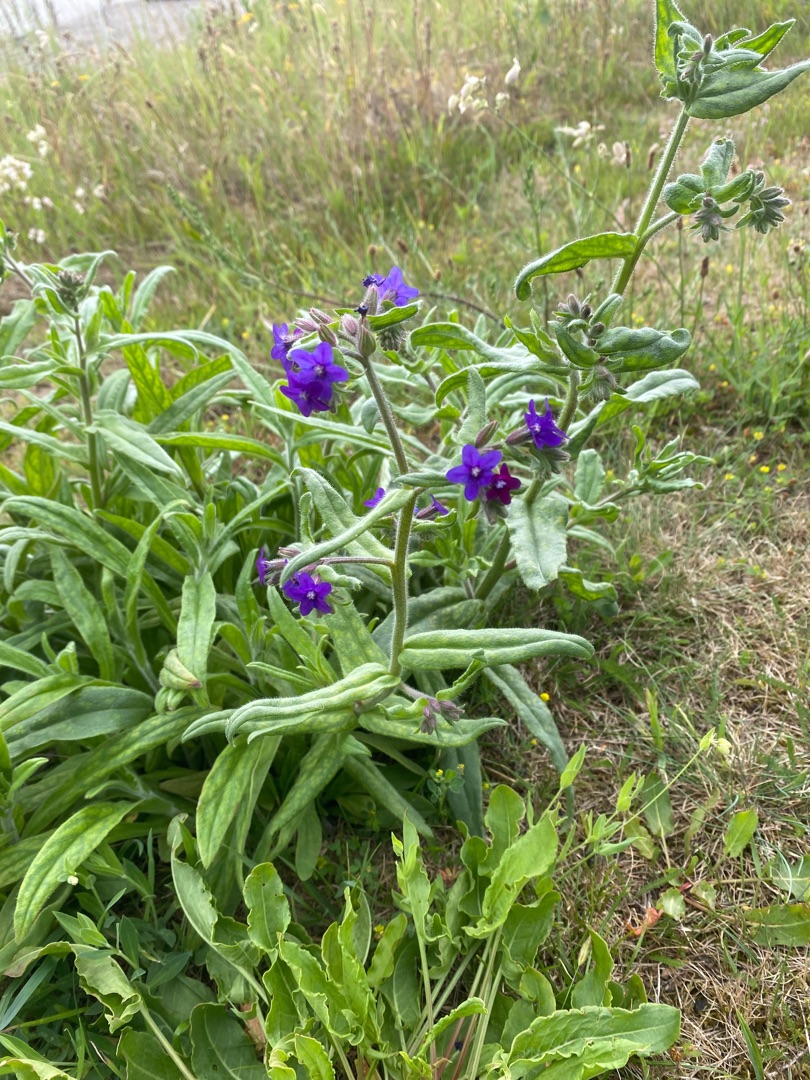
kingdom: Plantae
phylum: Tracheophyta
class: Magnoliopsida
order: Boraginales
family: Boraginaceae
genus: Anchusa
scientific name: Anchusa officinalis
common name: Læge-oksetunge
